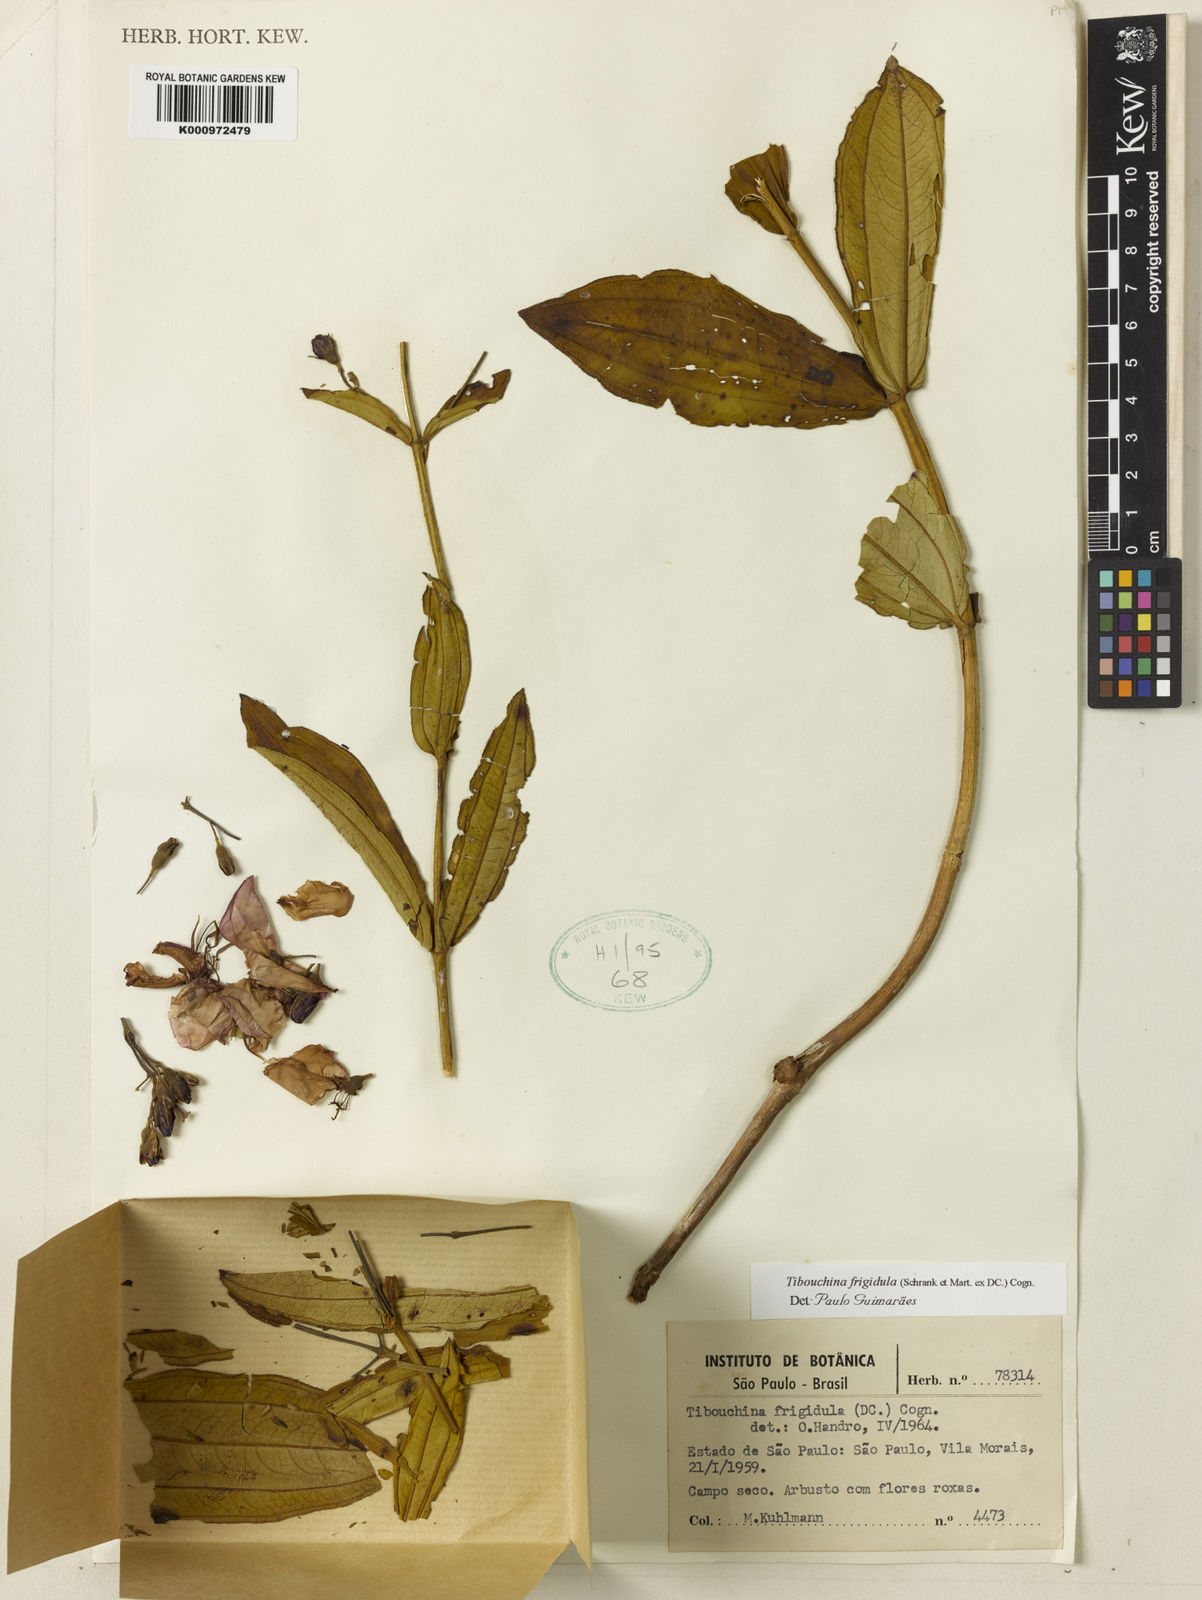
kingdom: Plantae
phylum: Tracheophyta
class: Magnoliopsida
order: Myrtales
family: Melastomataceae
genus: Pleroma
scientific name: Pleroma martiusianum
